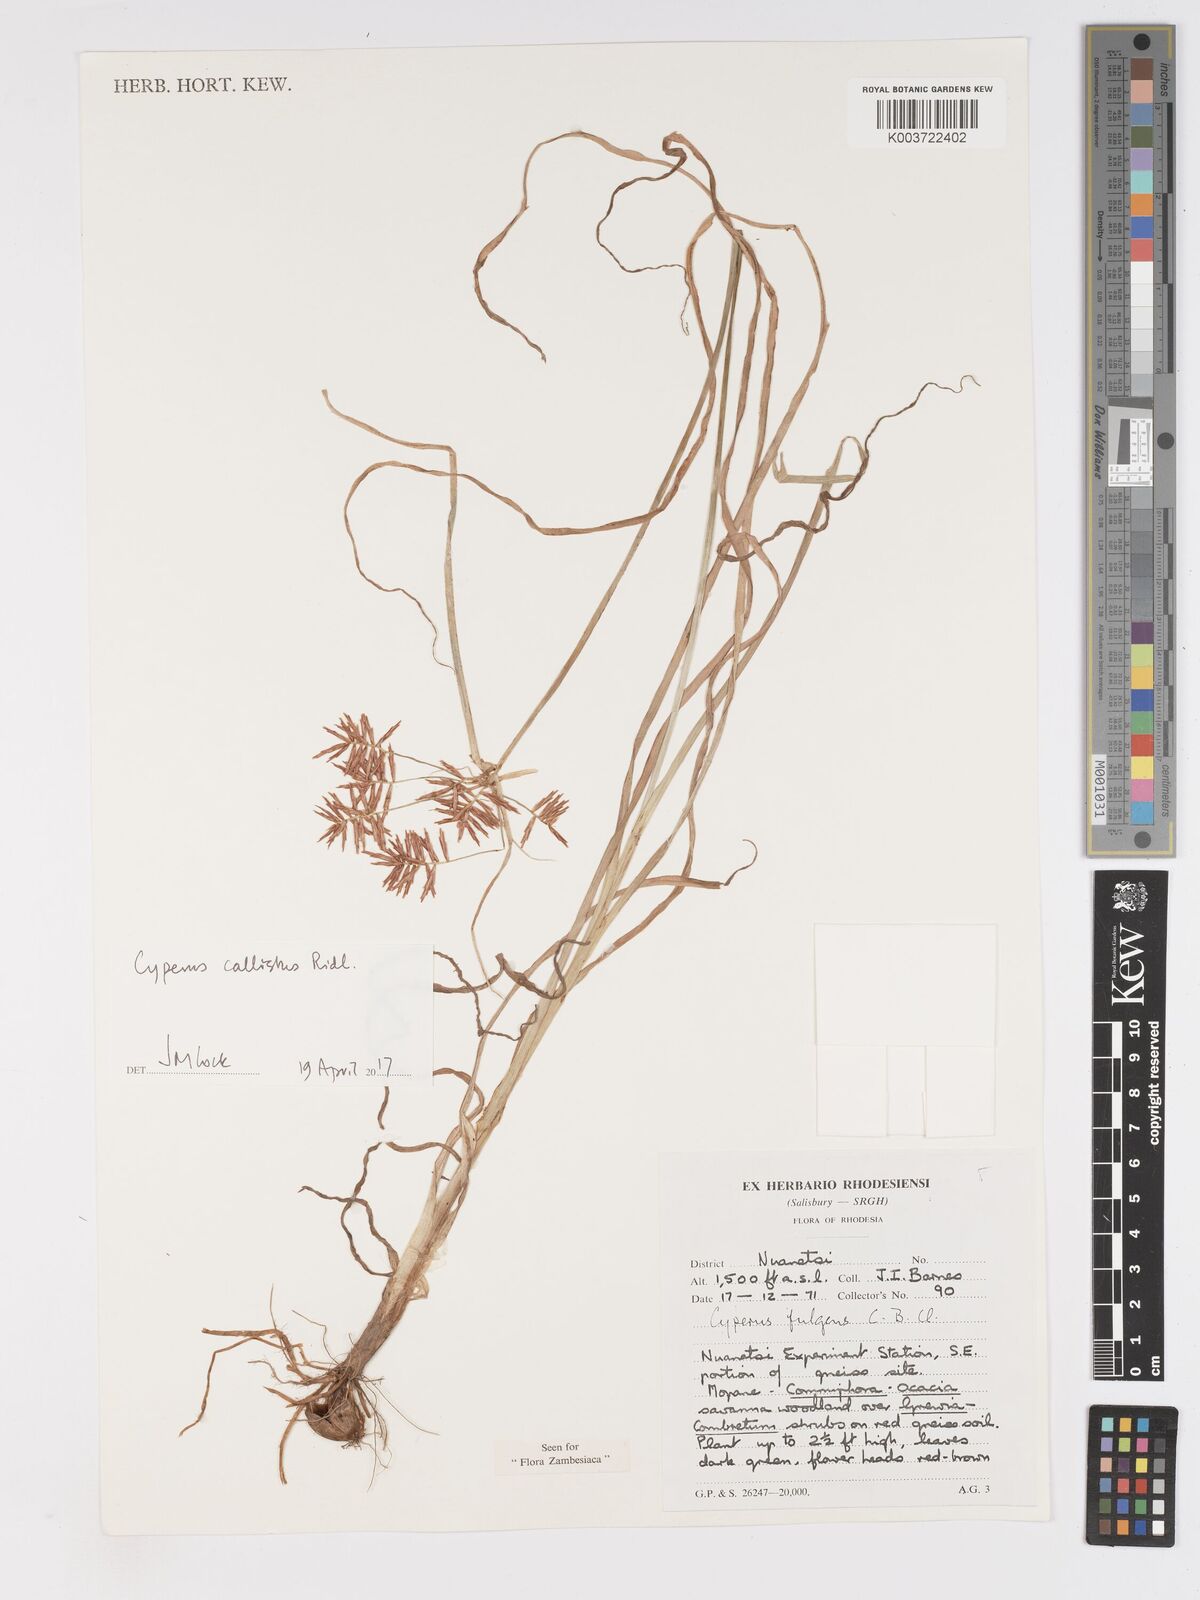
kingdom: Plantae
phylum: Tracheophyta
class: Liliopsida
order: Poales
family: Cyperaceae
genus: Cyperus
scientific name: Cyperus callistus
